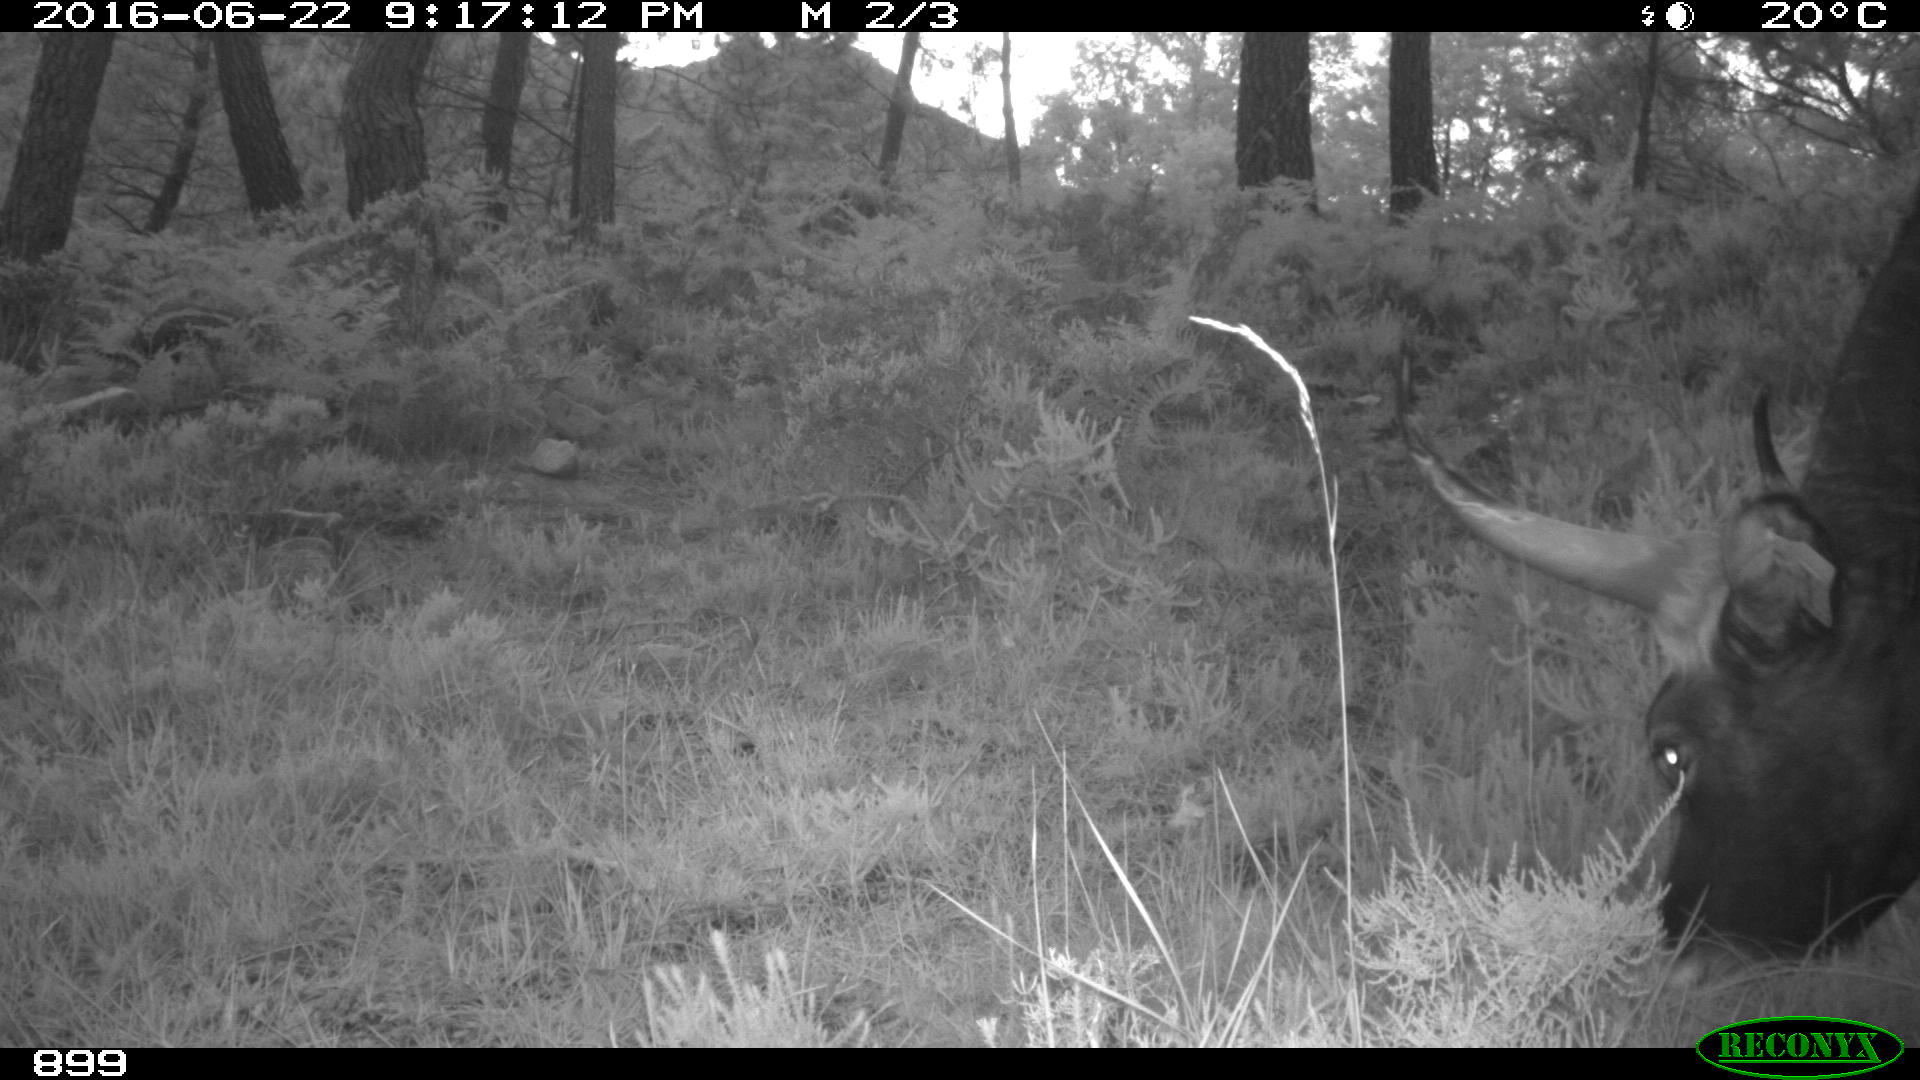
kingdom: Animalia
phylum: Chordata
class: Mammalia
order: Artiodactyla
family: Bovidae
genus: Bos
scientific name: Bos taurus
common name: Domesticated cattle
